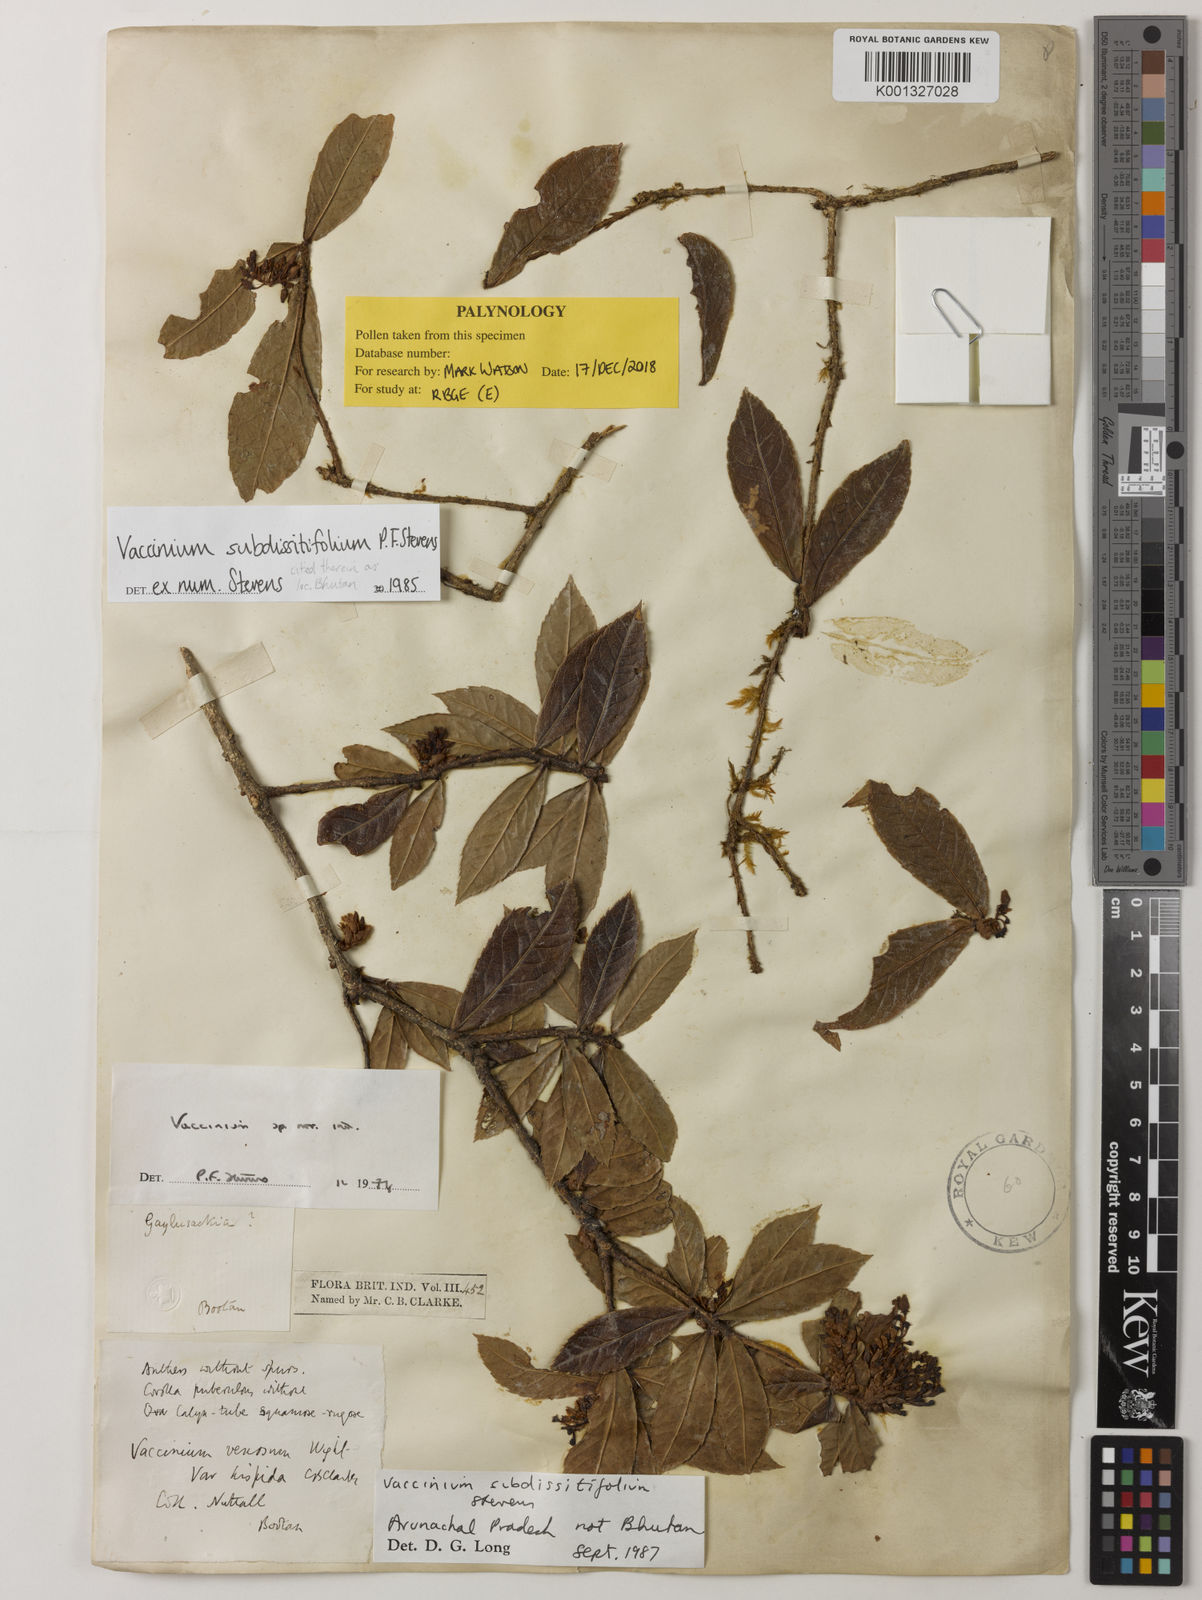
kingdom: Plantae
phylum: Tracheophyta
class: Magnoliopsida
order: Ericales
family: Ericaceae
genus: Vaccinium
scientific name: Vaccinium subdissitifolium
